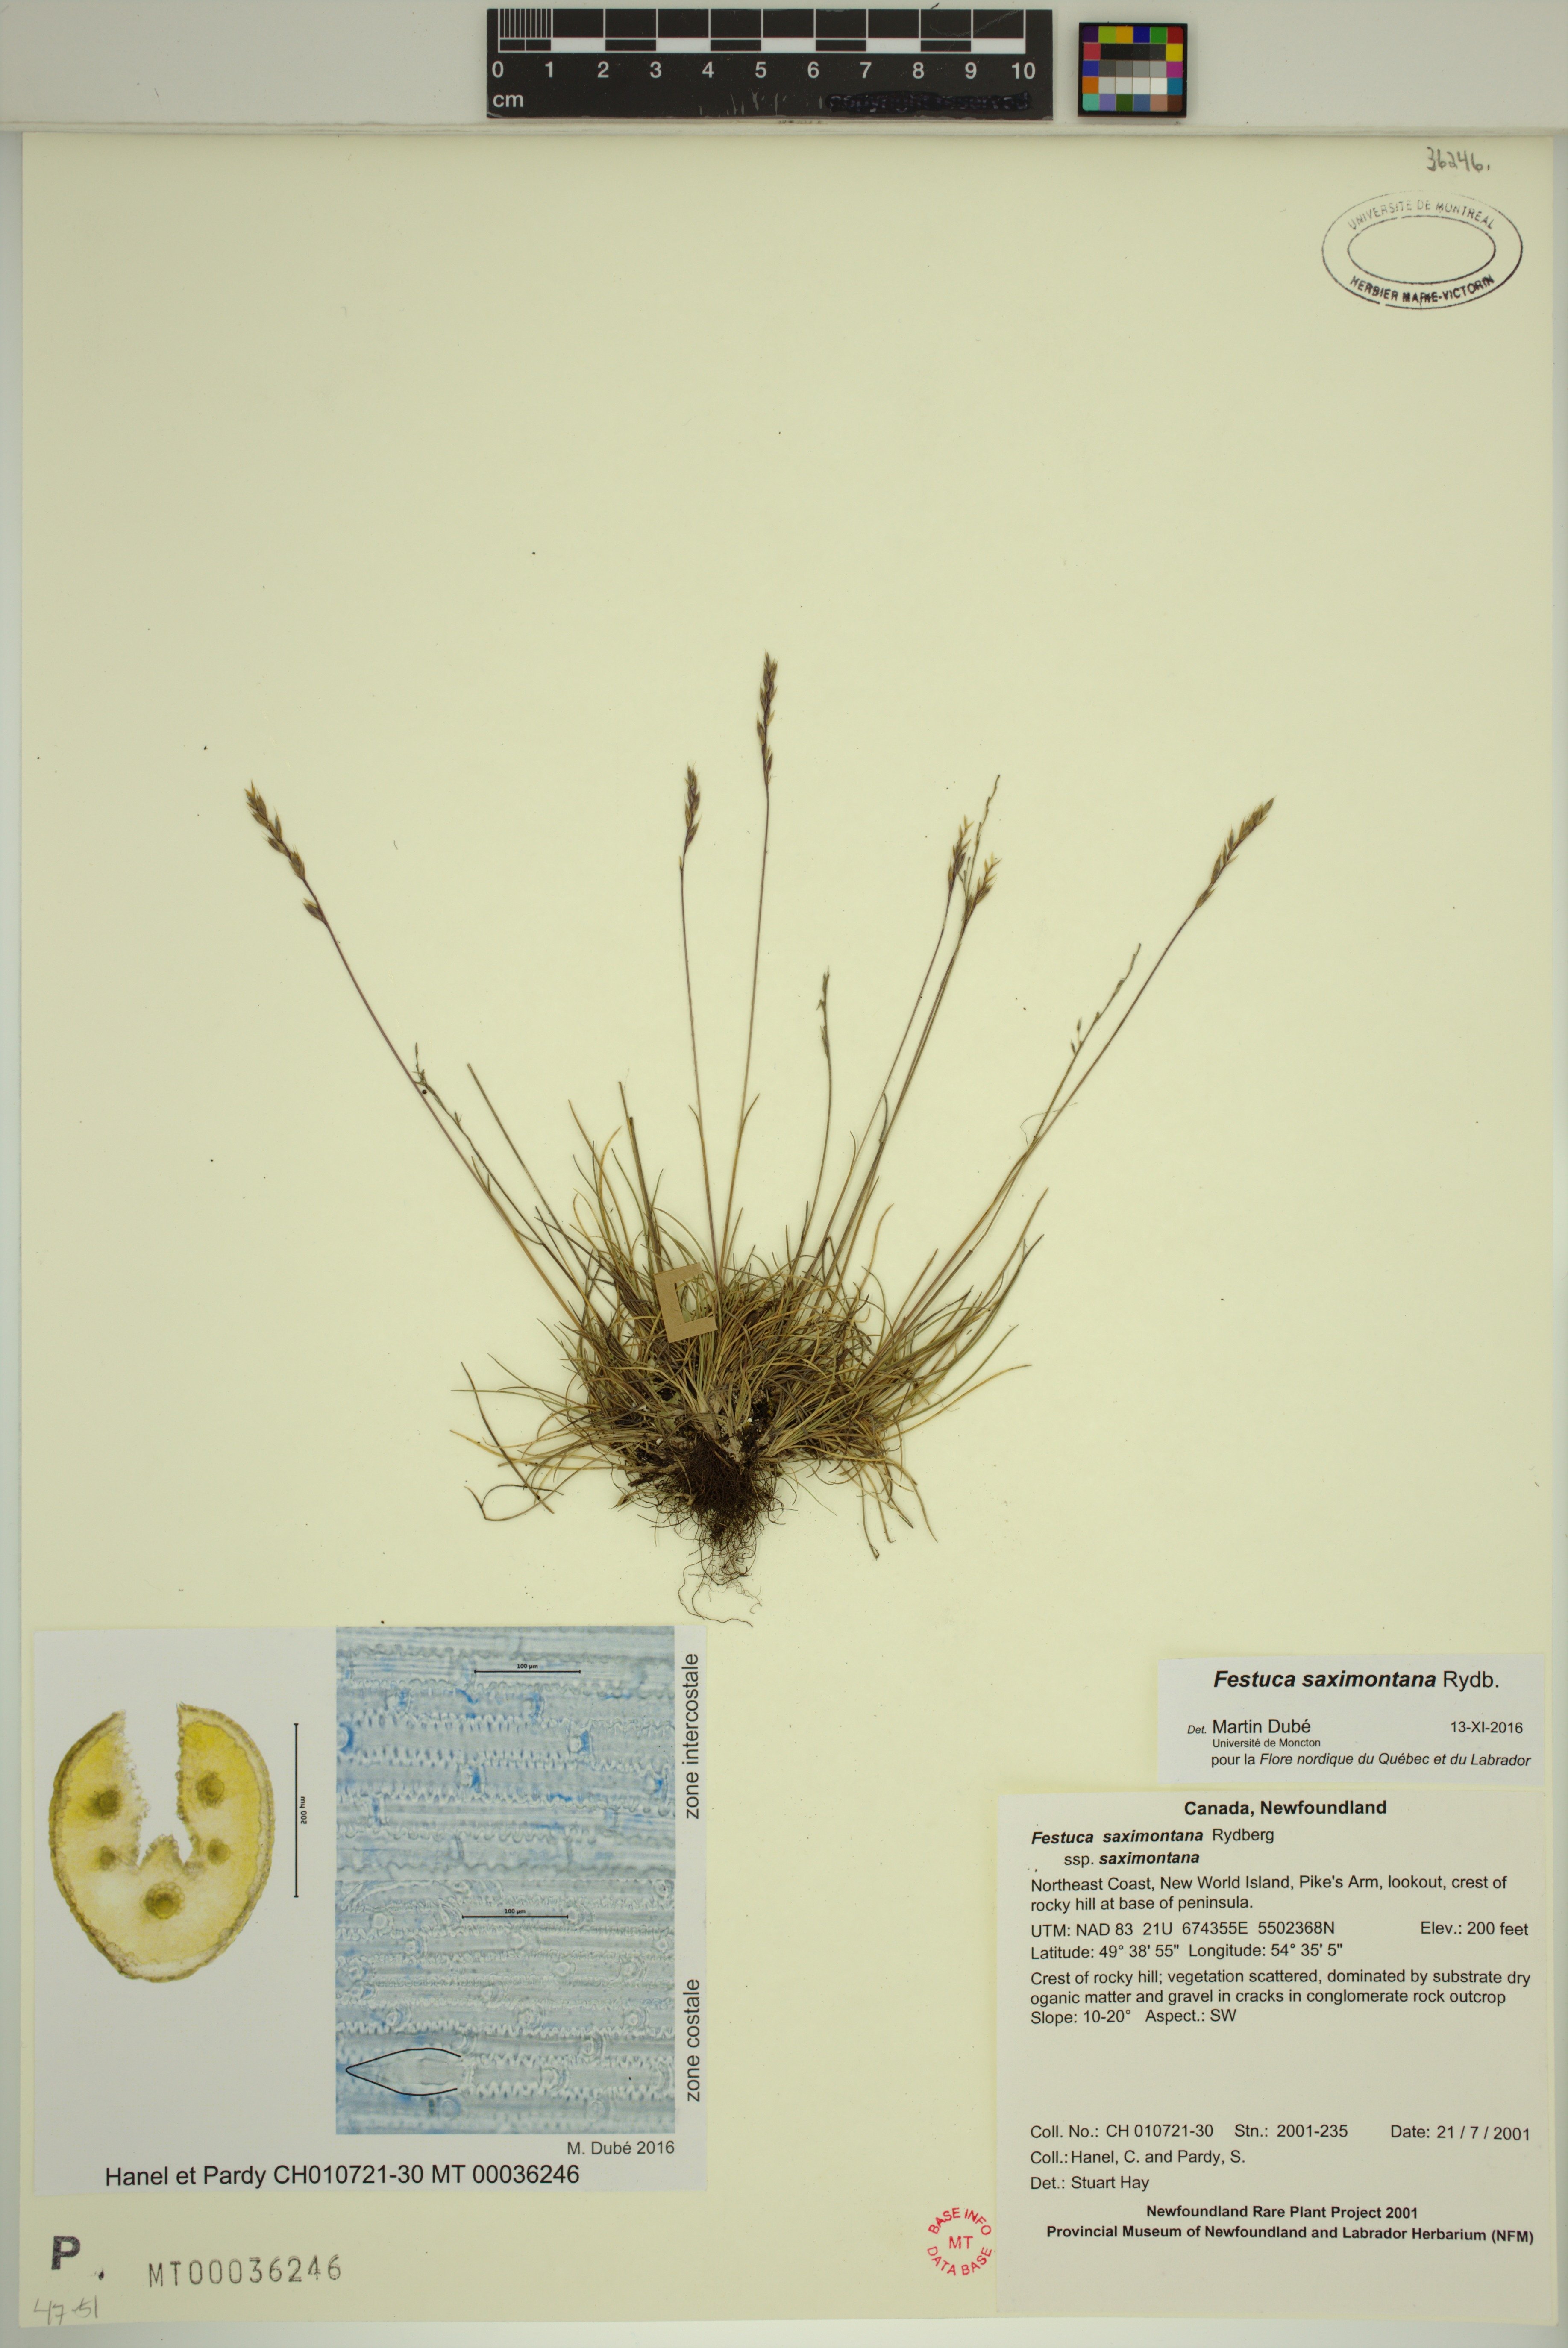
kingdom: Plantae
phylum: Tracheophyta
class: Liliopsida
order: Poales
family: Poaceae
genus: Festuca
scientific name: Festuca saximontana
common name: Mountain fescue
